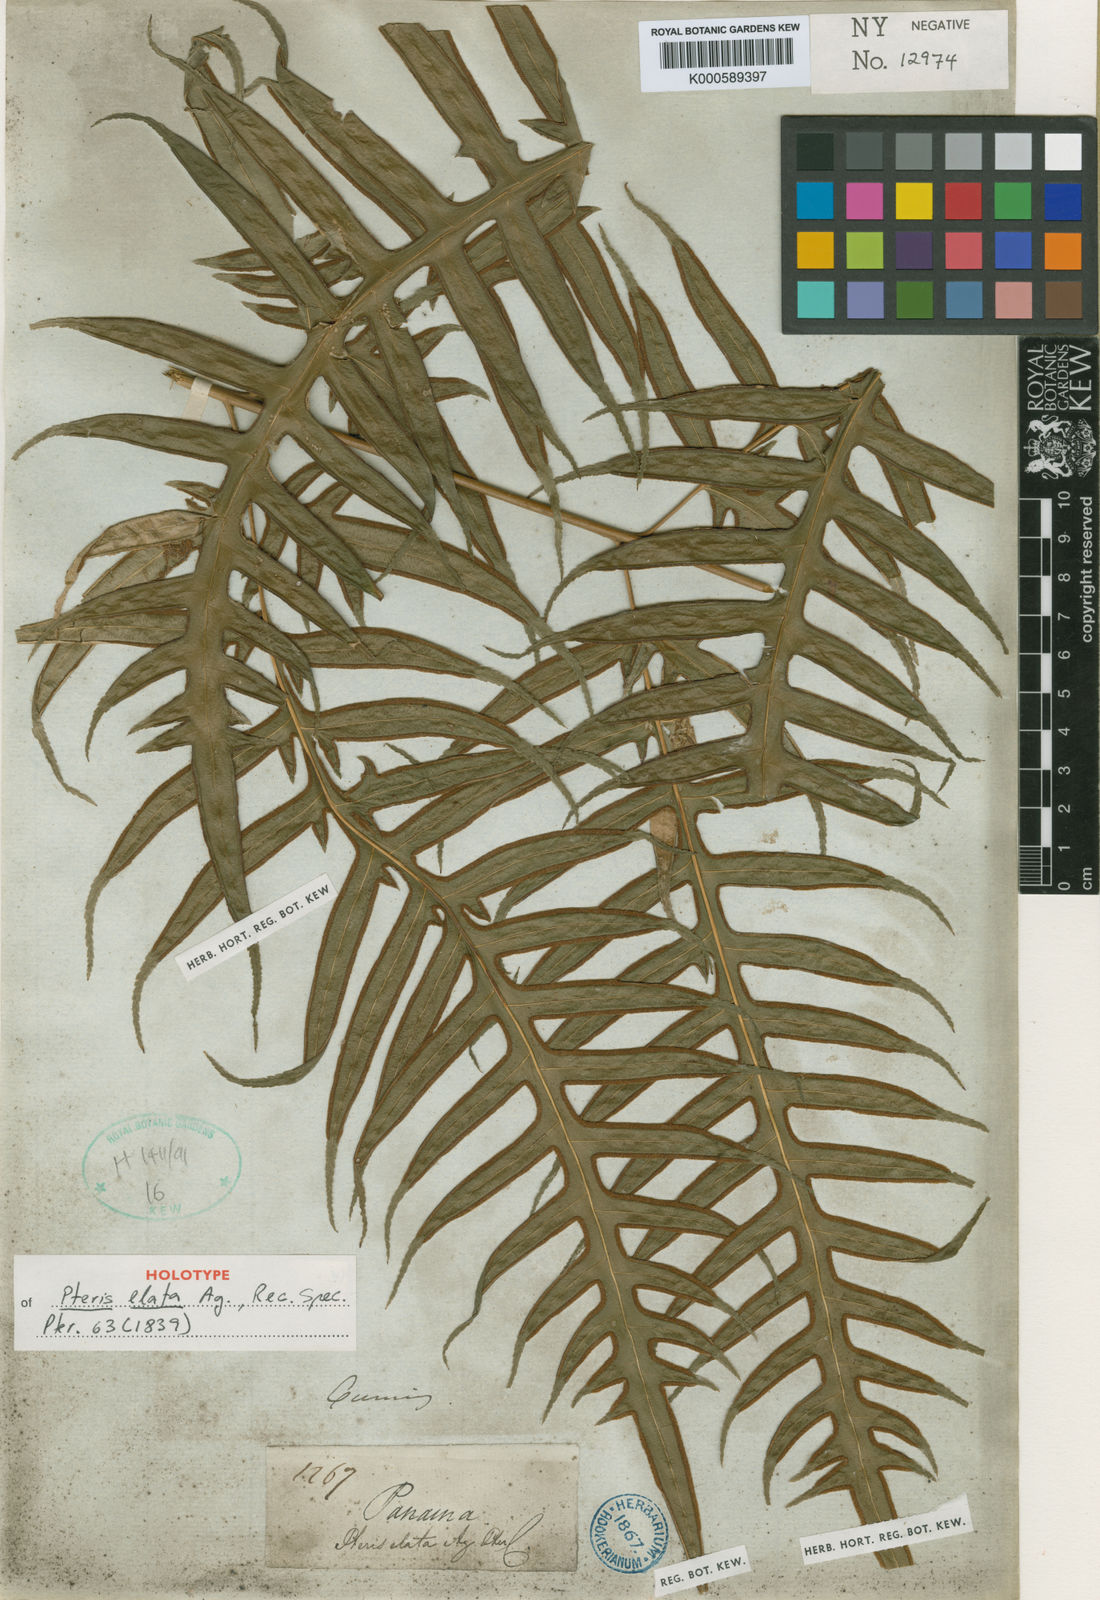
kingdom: Plantae
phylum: Tracheophyta
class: Polypodiopsida
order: Polypodiales
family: Pteridaceae
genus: Pteris
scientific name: Pteris podophylla
